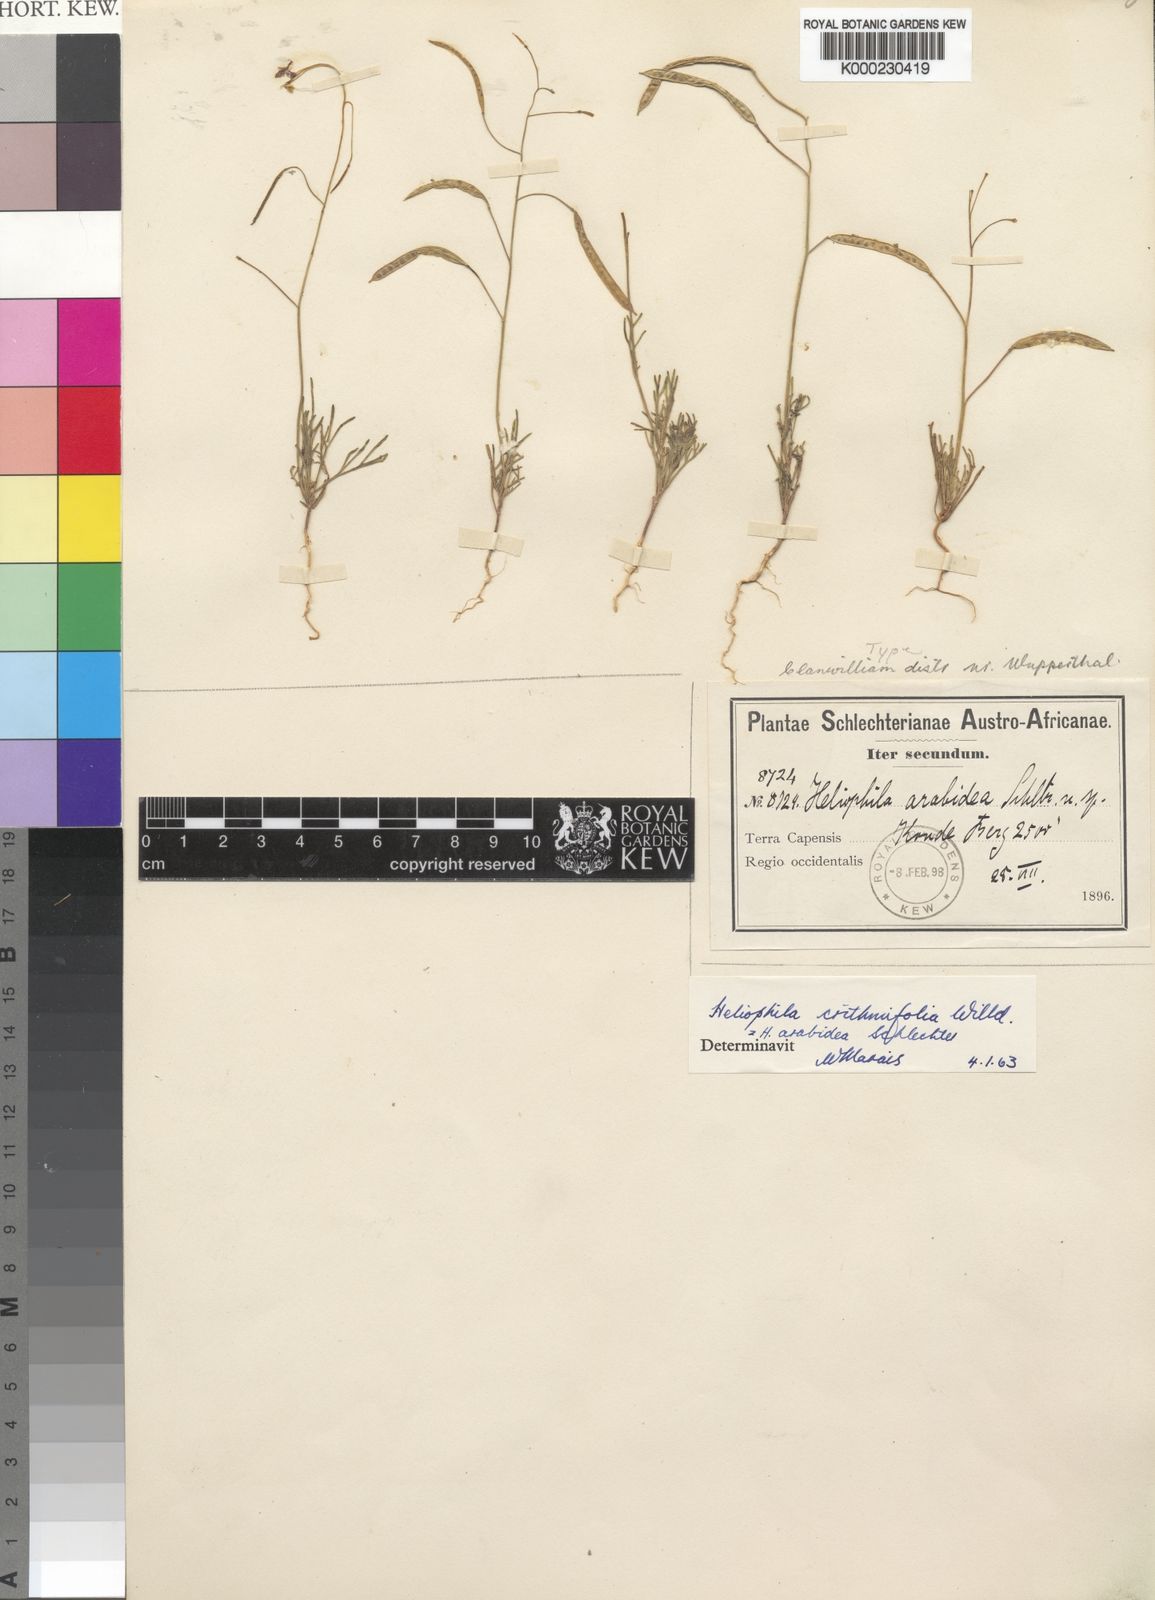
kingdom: Plantae
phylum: Tracheophyta
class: Magnoliopsida
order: Brassicales
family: Brassicaceae
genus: Heliophila
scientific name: Heliophila crithmifolia
